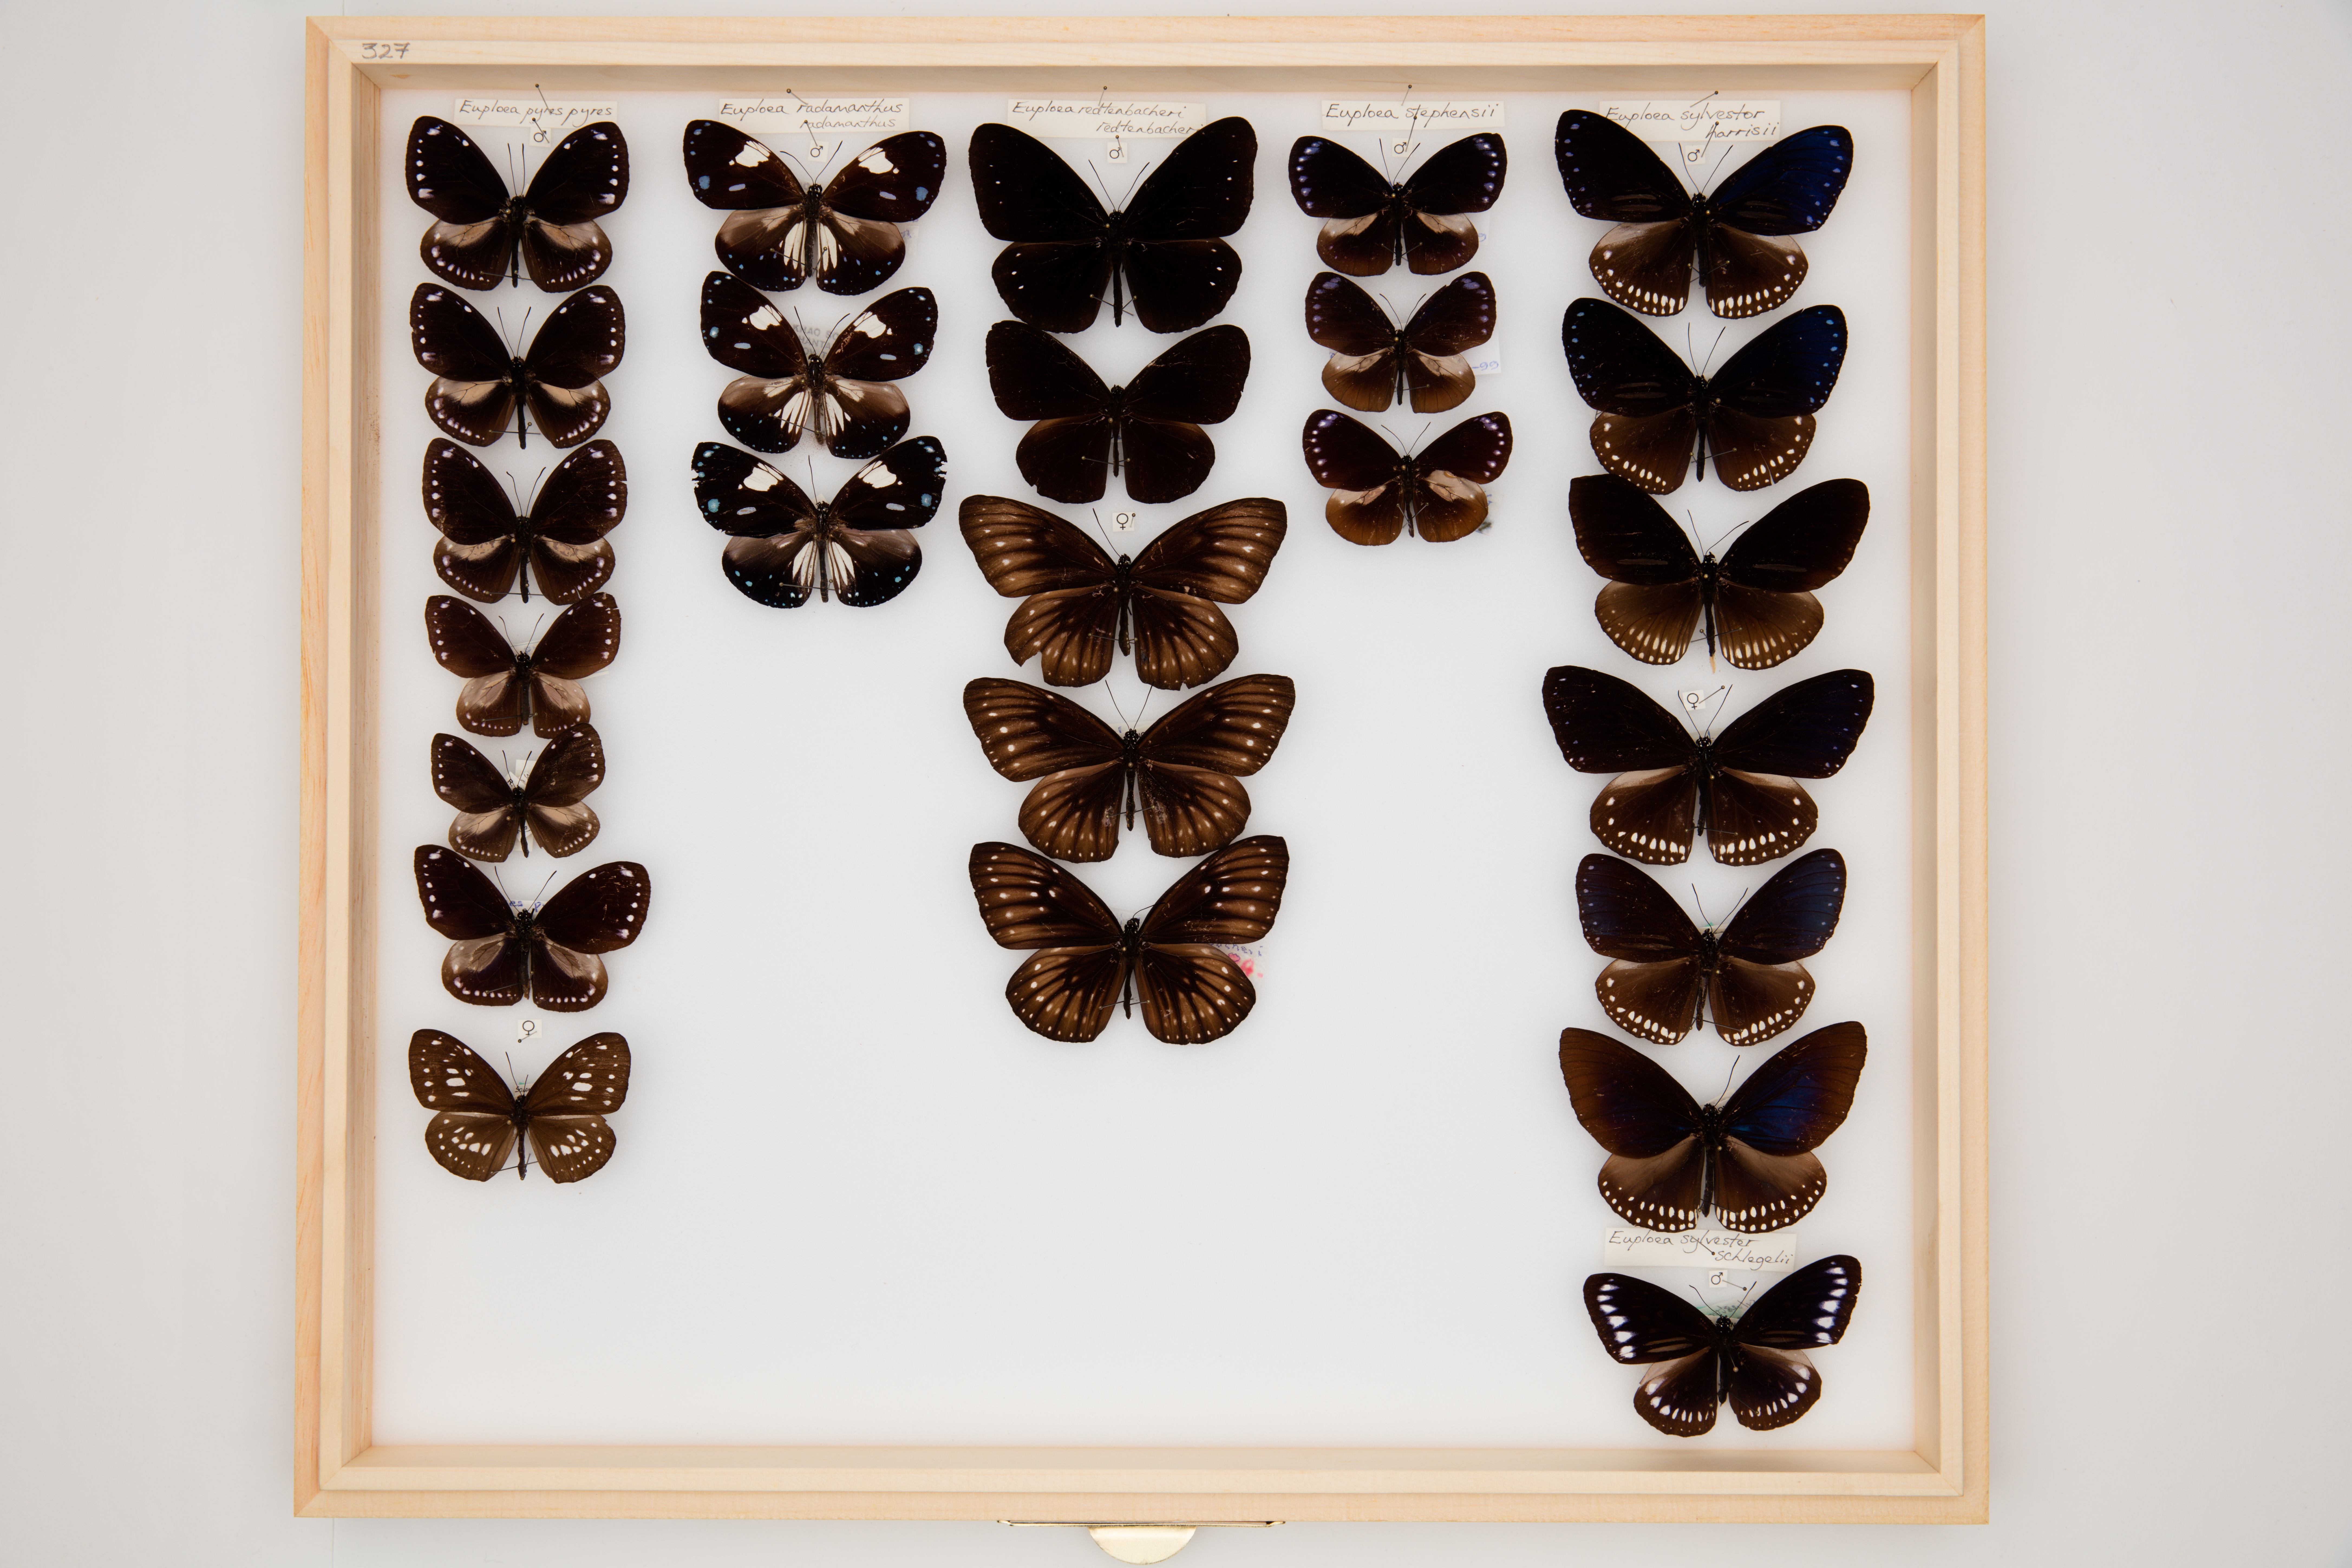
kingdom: Animalia
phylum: Arthropoda
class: Insecta
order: Lepidoptera
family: Nymphalidae
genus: Euploea
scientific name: Euploea tulliolus
